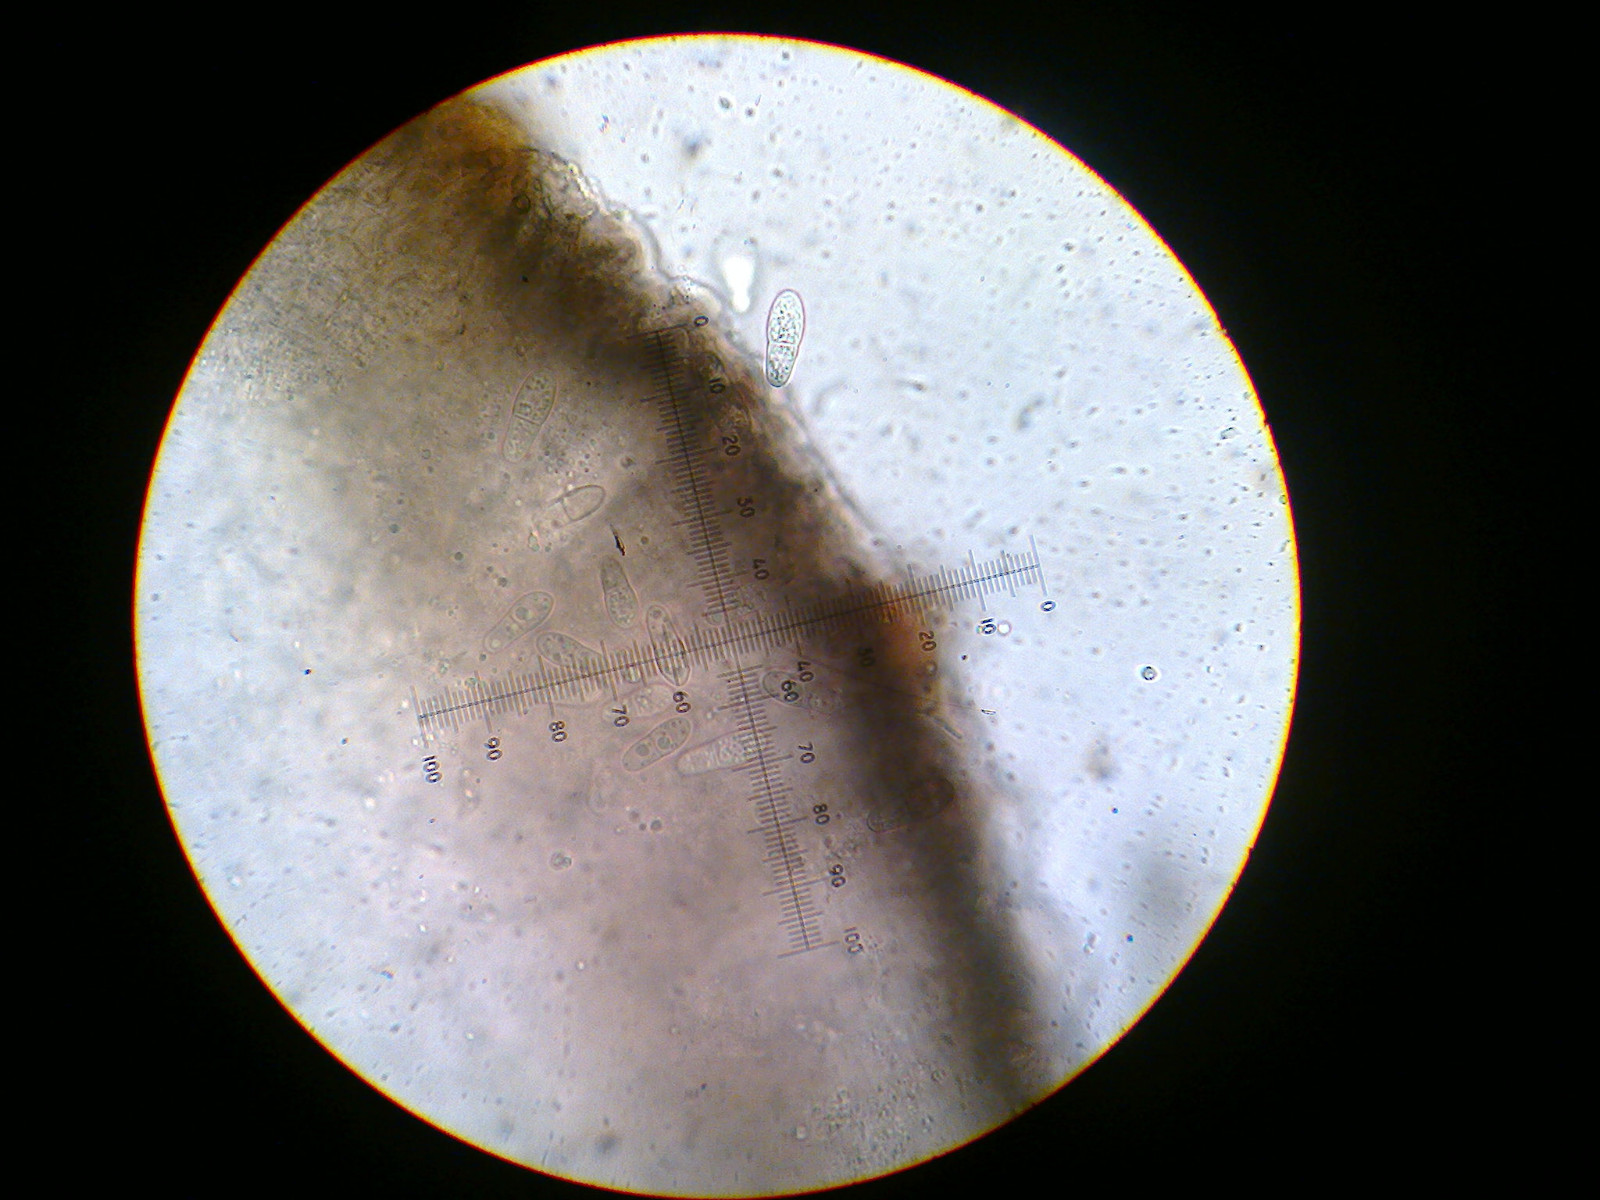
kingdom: Fungi
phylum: Ascomycota
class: Arthoniomycetes
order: Arthoniales
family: Arthoniaceae
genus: Bryostigma
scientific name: Bryostigma apotheciorum
